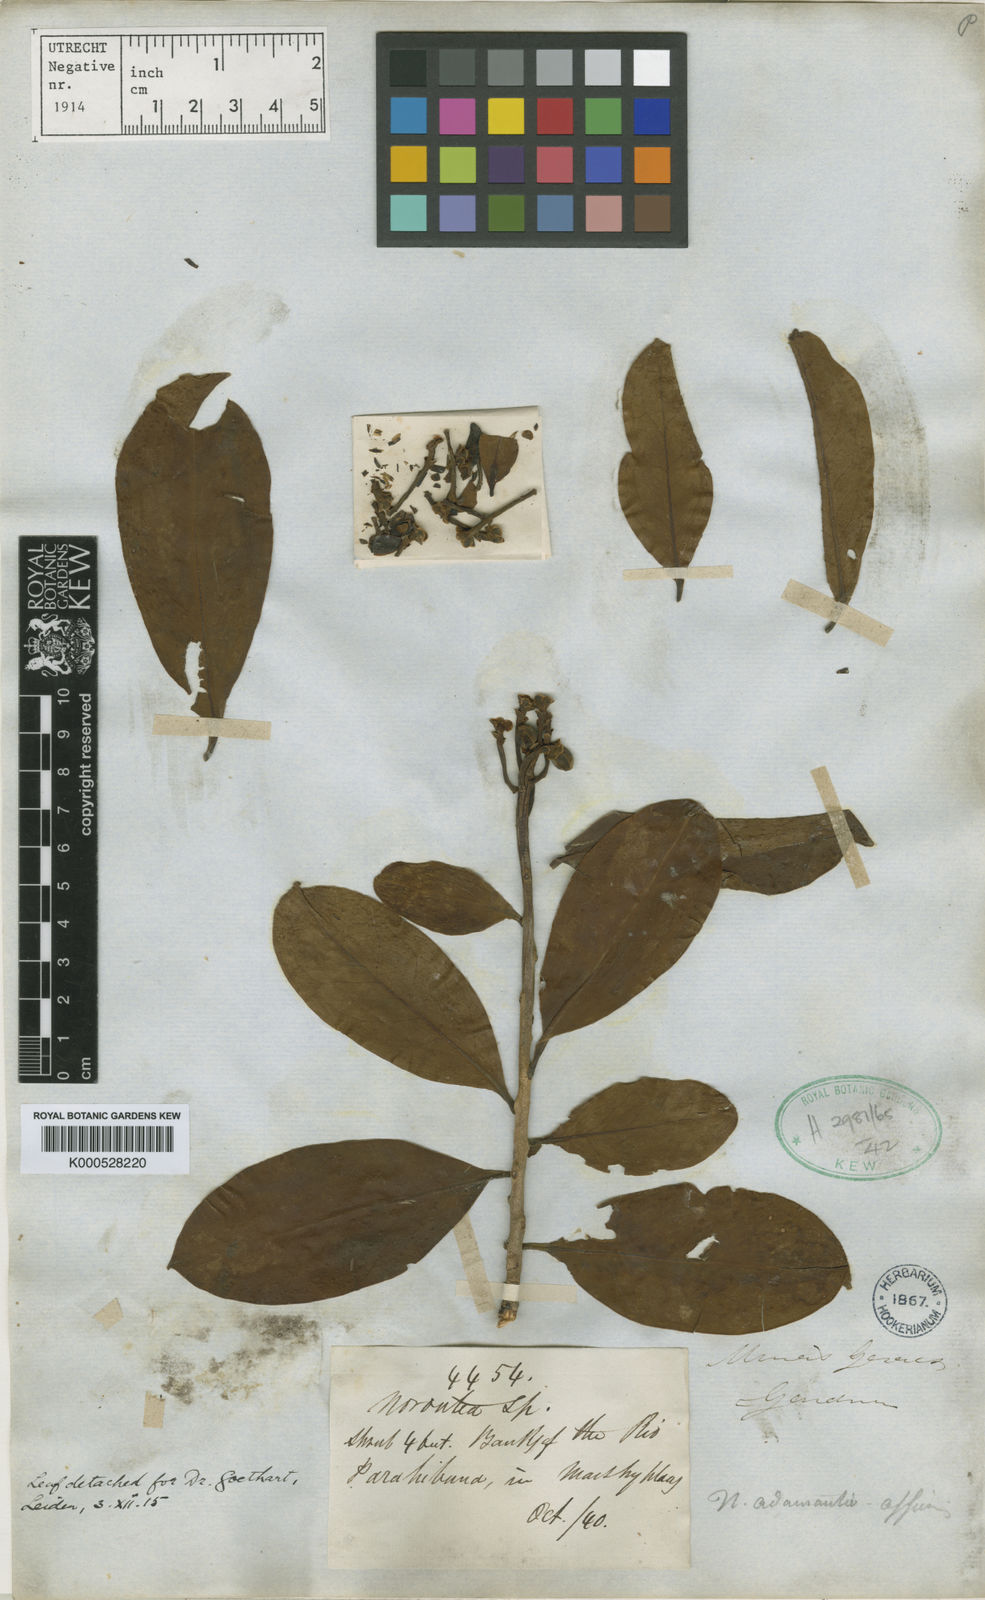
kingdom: Plantae
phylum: Tracheophyta
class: Magnoliopsida
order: Ericales
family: Marcgraviaceae
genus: Marcgraviastrum
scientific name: Marcgraviastrum delpinianum
